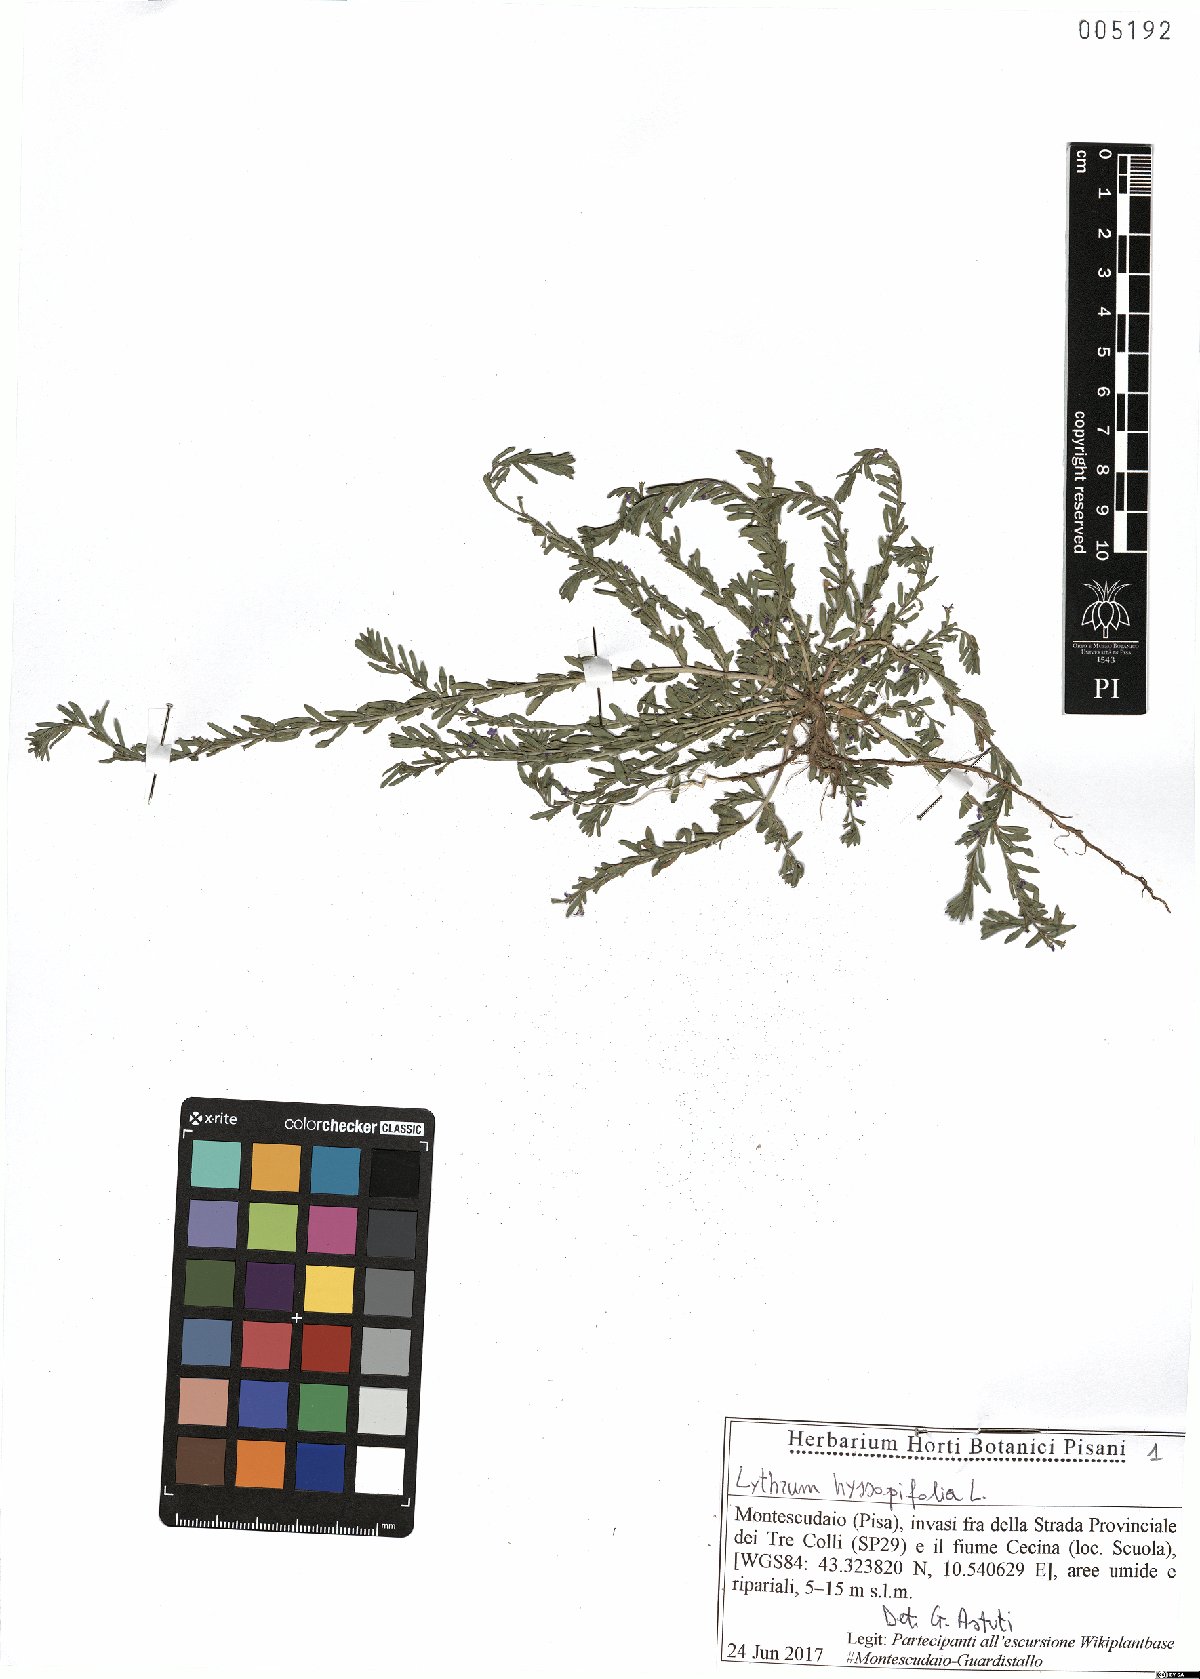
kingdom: Plantae
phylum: Tracheophyta
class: Magnoliopsida
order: Myrtales
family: Lythraceae
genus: Lythrum
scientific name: Lythrum hyssopifolia
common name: Grass-poly
